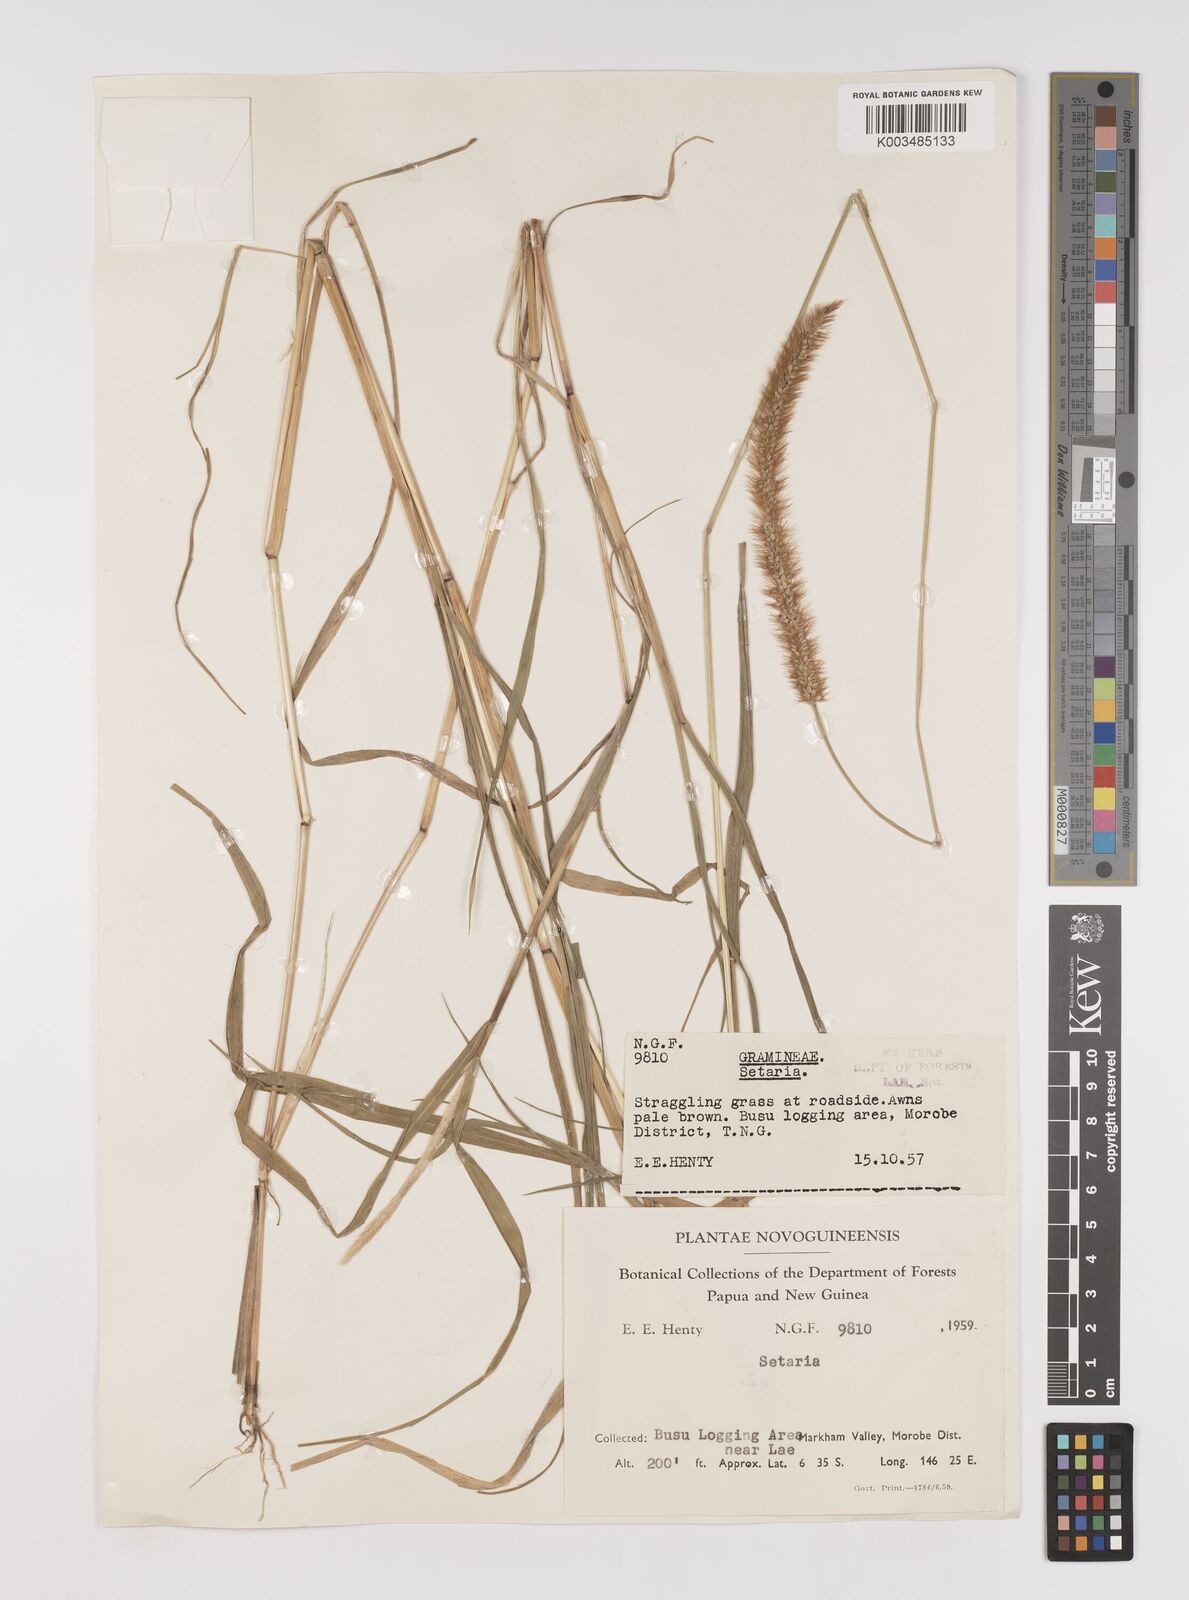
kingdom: Plantae
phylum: Tracheophyta
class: Liliopsida
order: Poales
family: Poaceae
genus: Setaria
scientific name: Setaria
